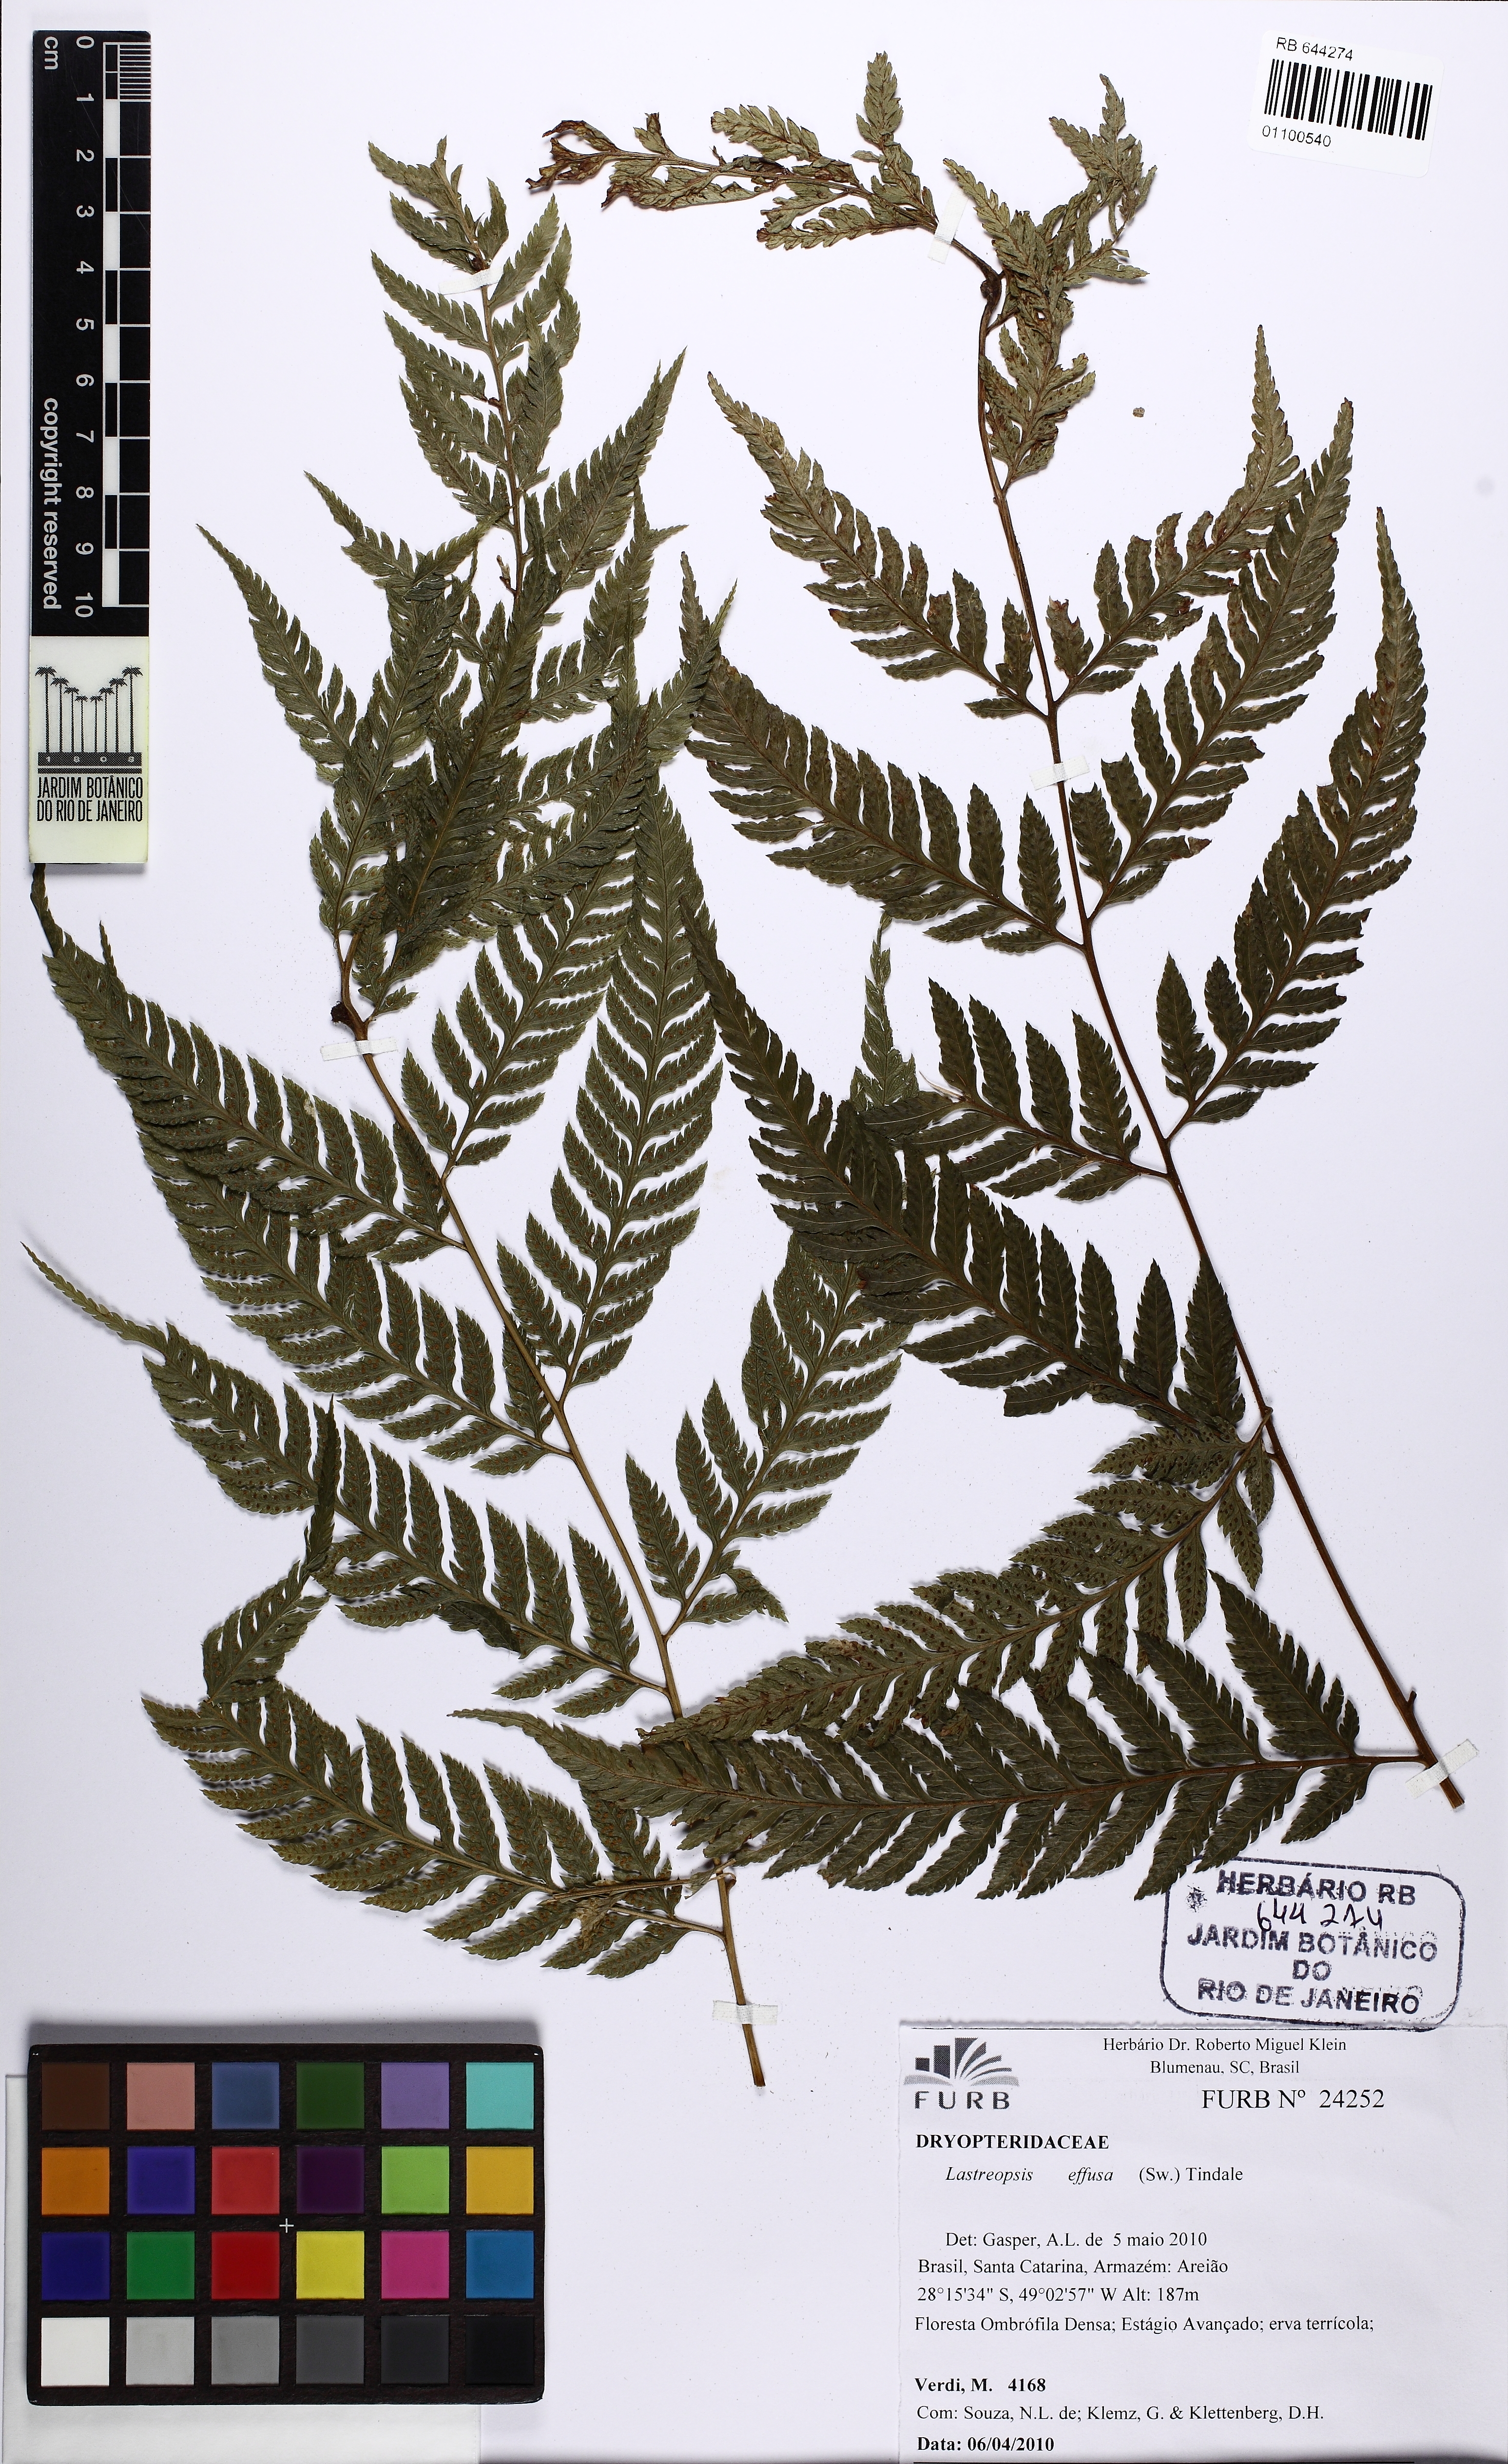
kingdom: Plantae
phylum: Tracheophyta
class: Polypodiopsida
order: Polypodiales
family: Dryopteridaceae
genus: Parapolystichum
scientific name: Parapolystichum effusum
